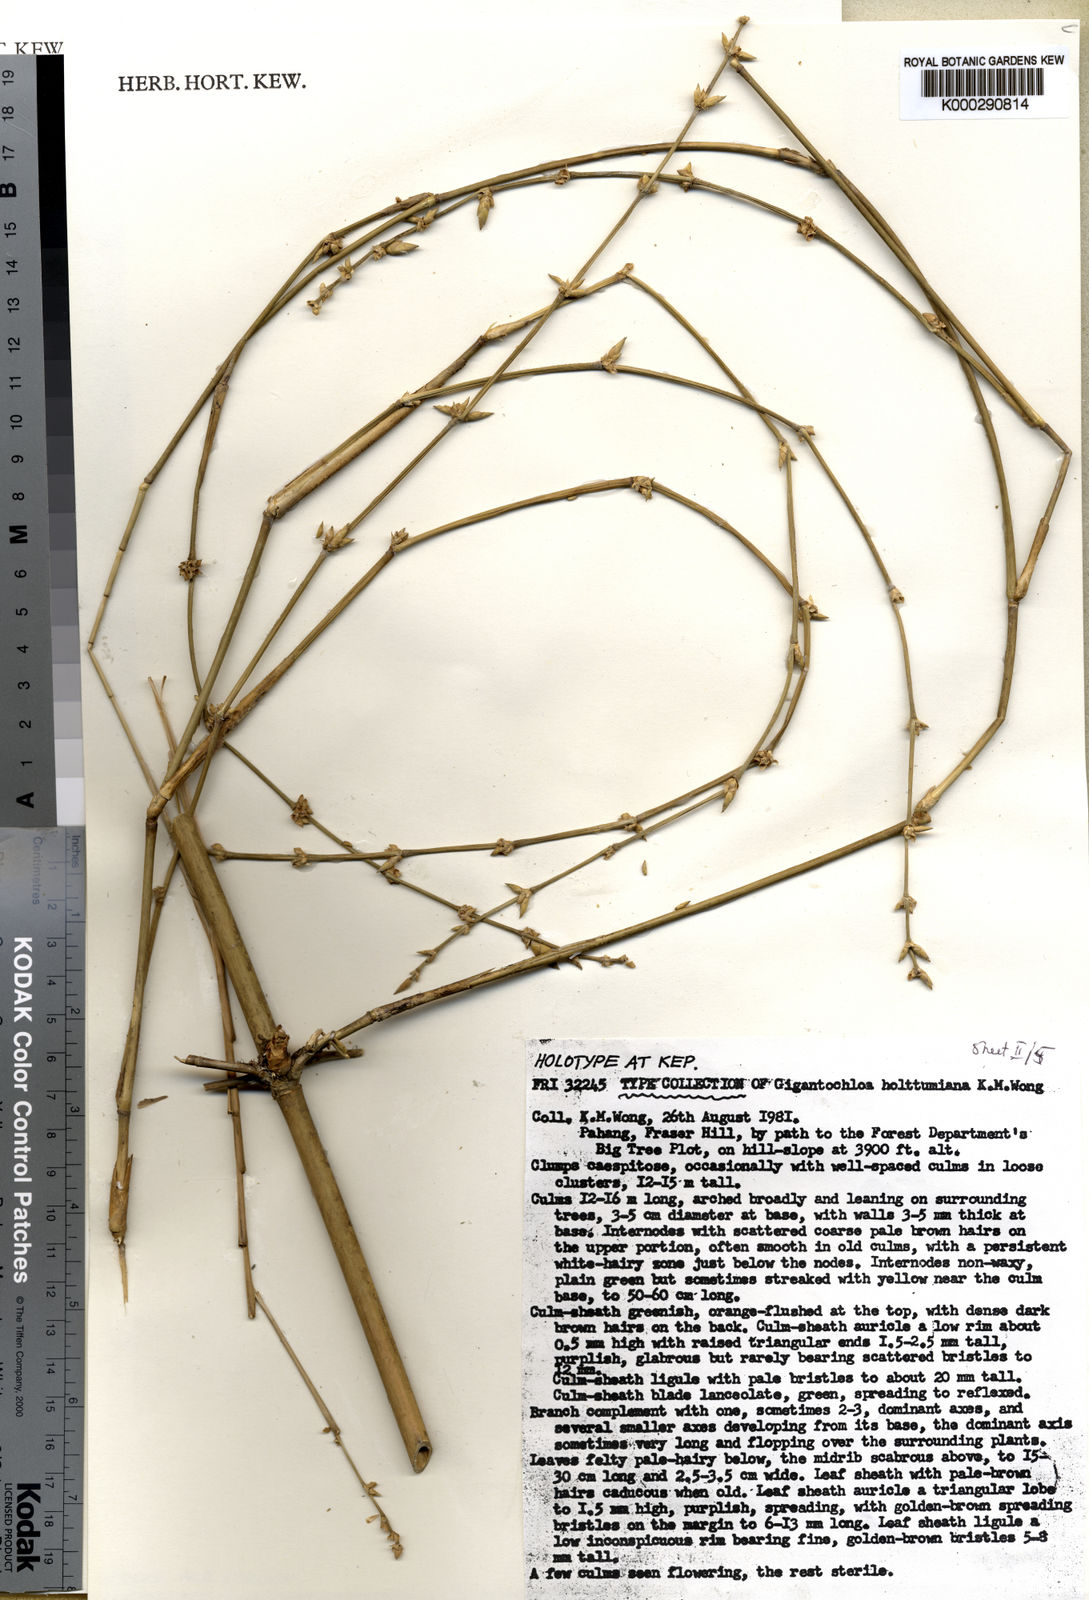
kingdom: Plantae
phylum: Tracheophyta
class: Liliopsida
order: Poales
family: Poaceae
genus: Gigantochloa
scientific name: Gigantochloa holttumiana
